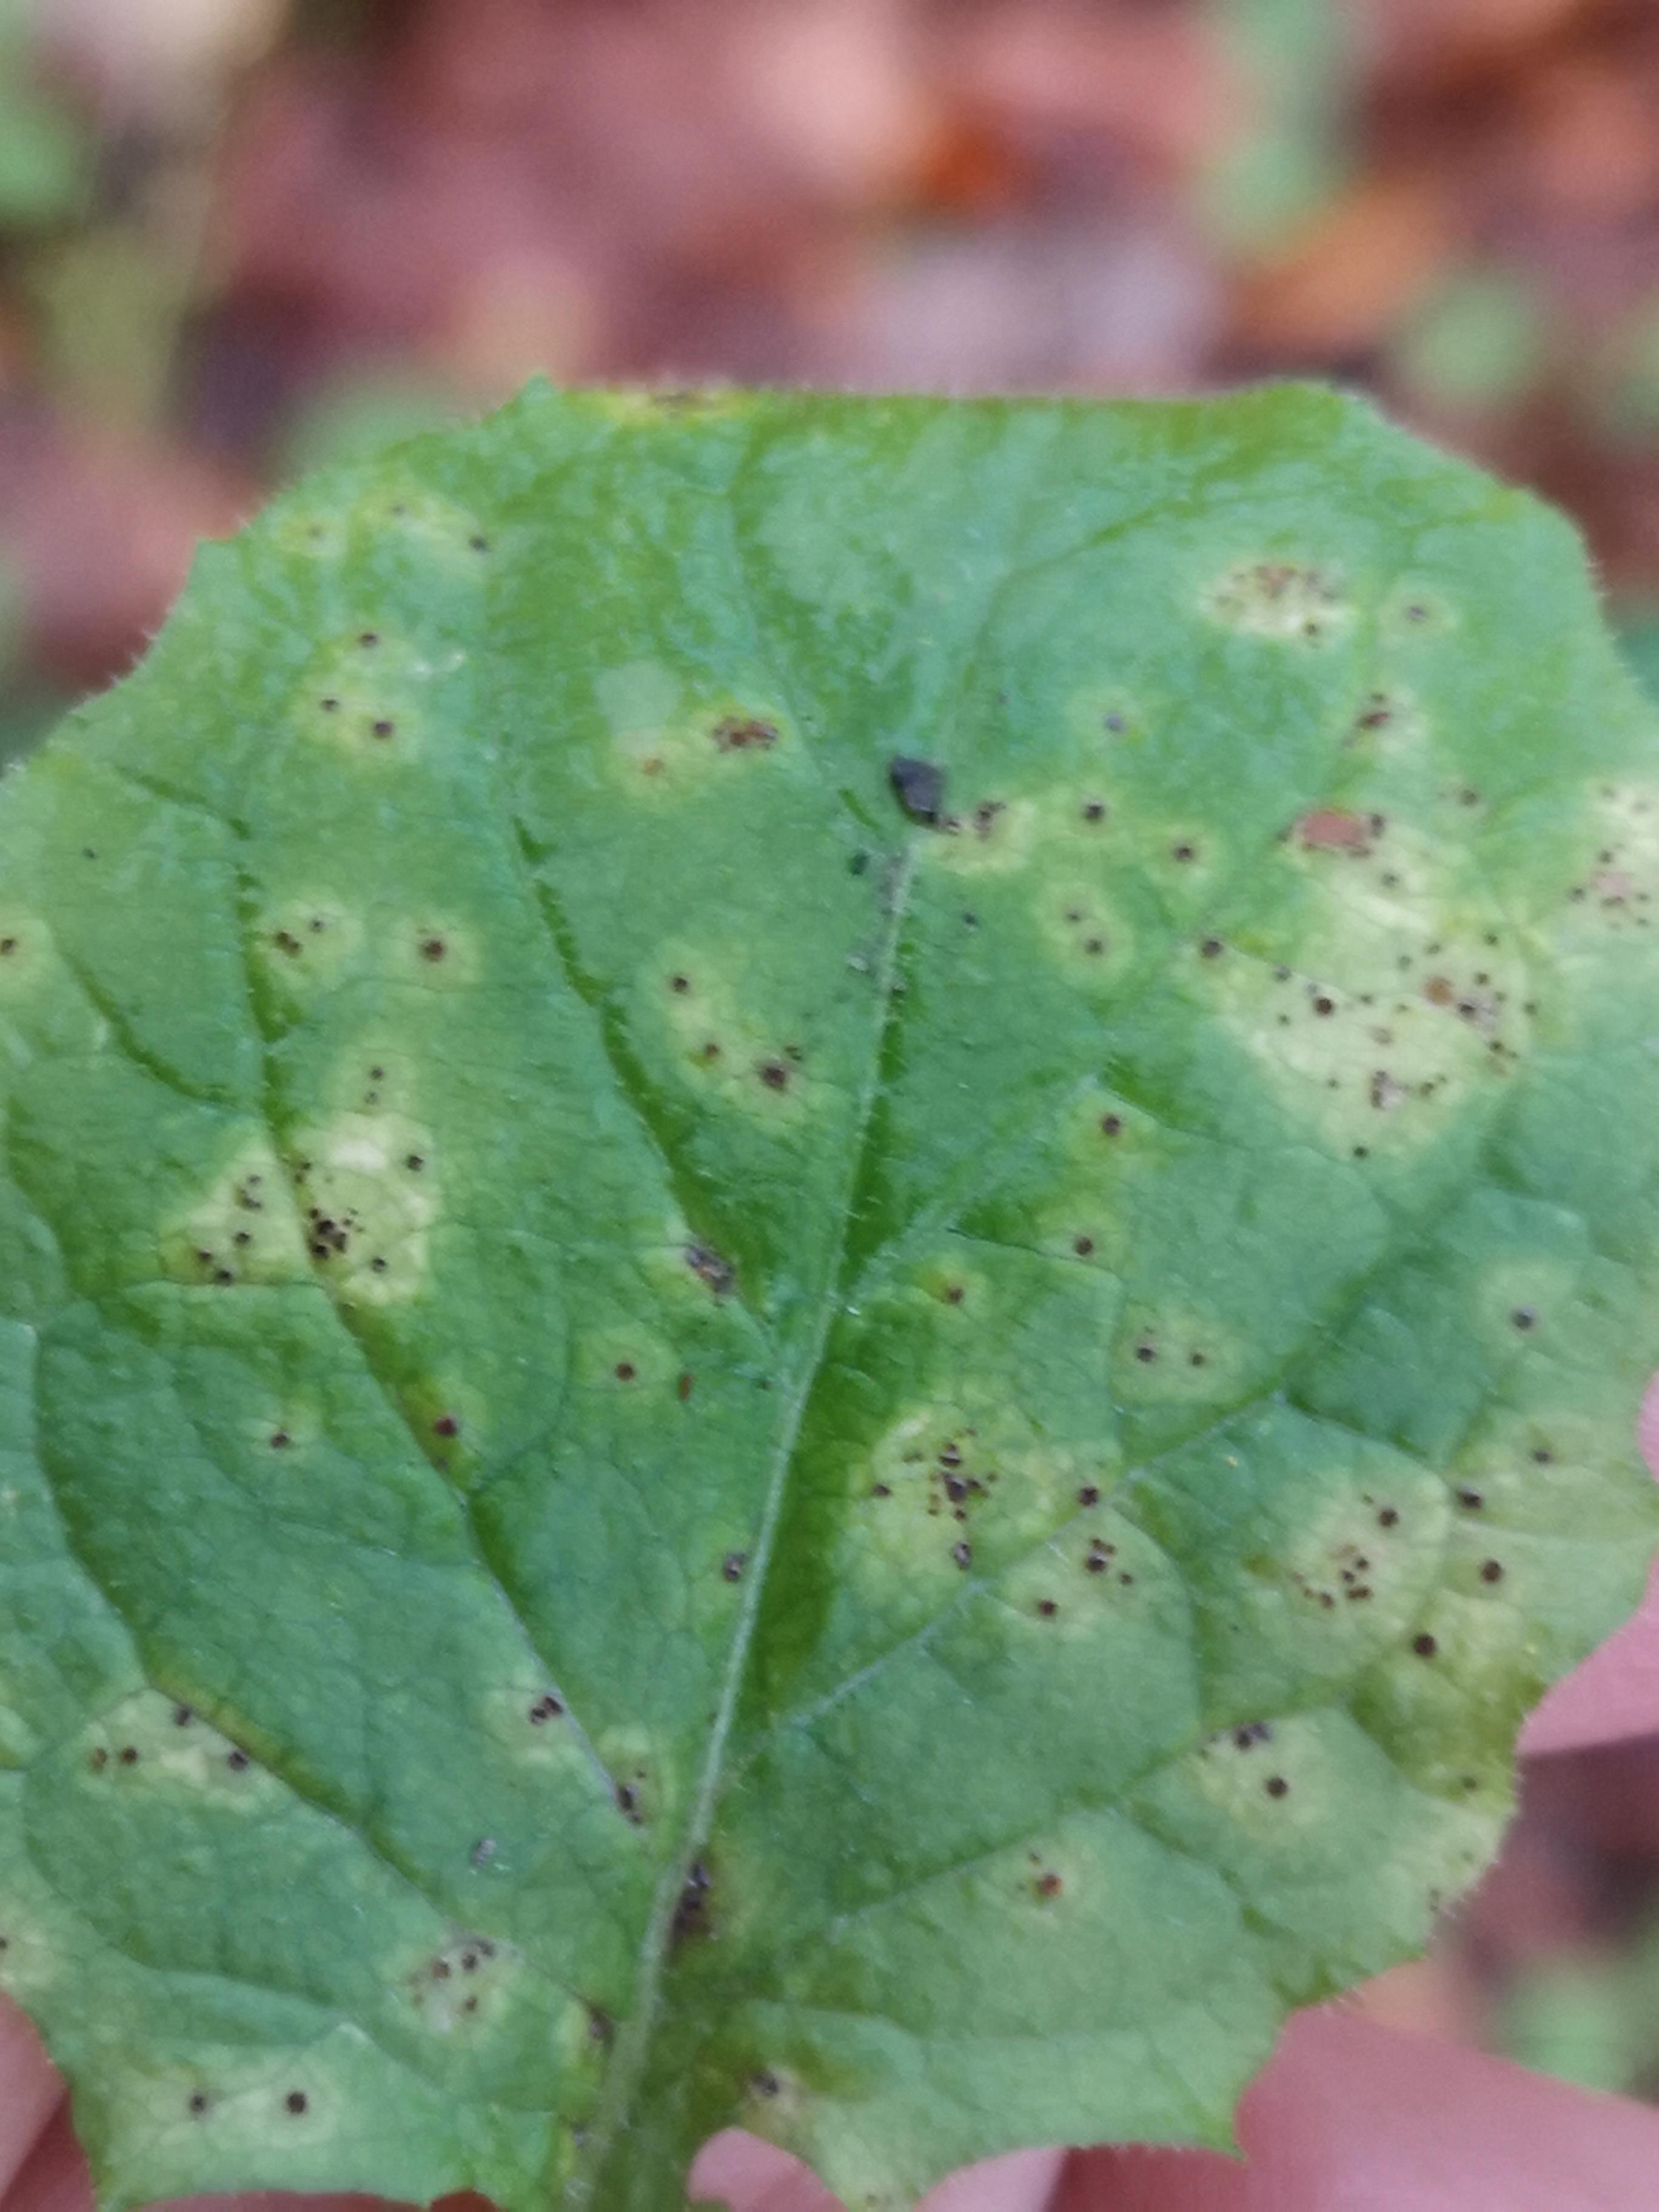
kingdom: Fungi
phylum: Basidiomycota
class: Pucciniomycetes
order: Pucciniales
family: Pucciniaceae
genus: Puccinia
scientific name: Puccinia lapsanae
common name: Nipplewort rust
